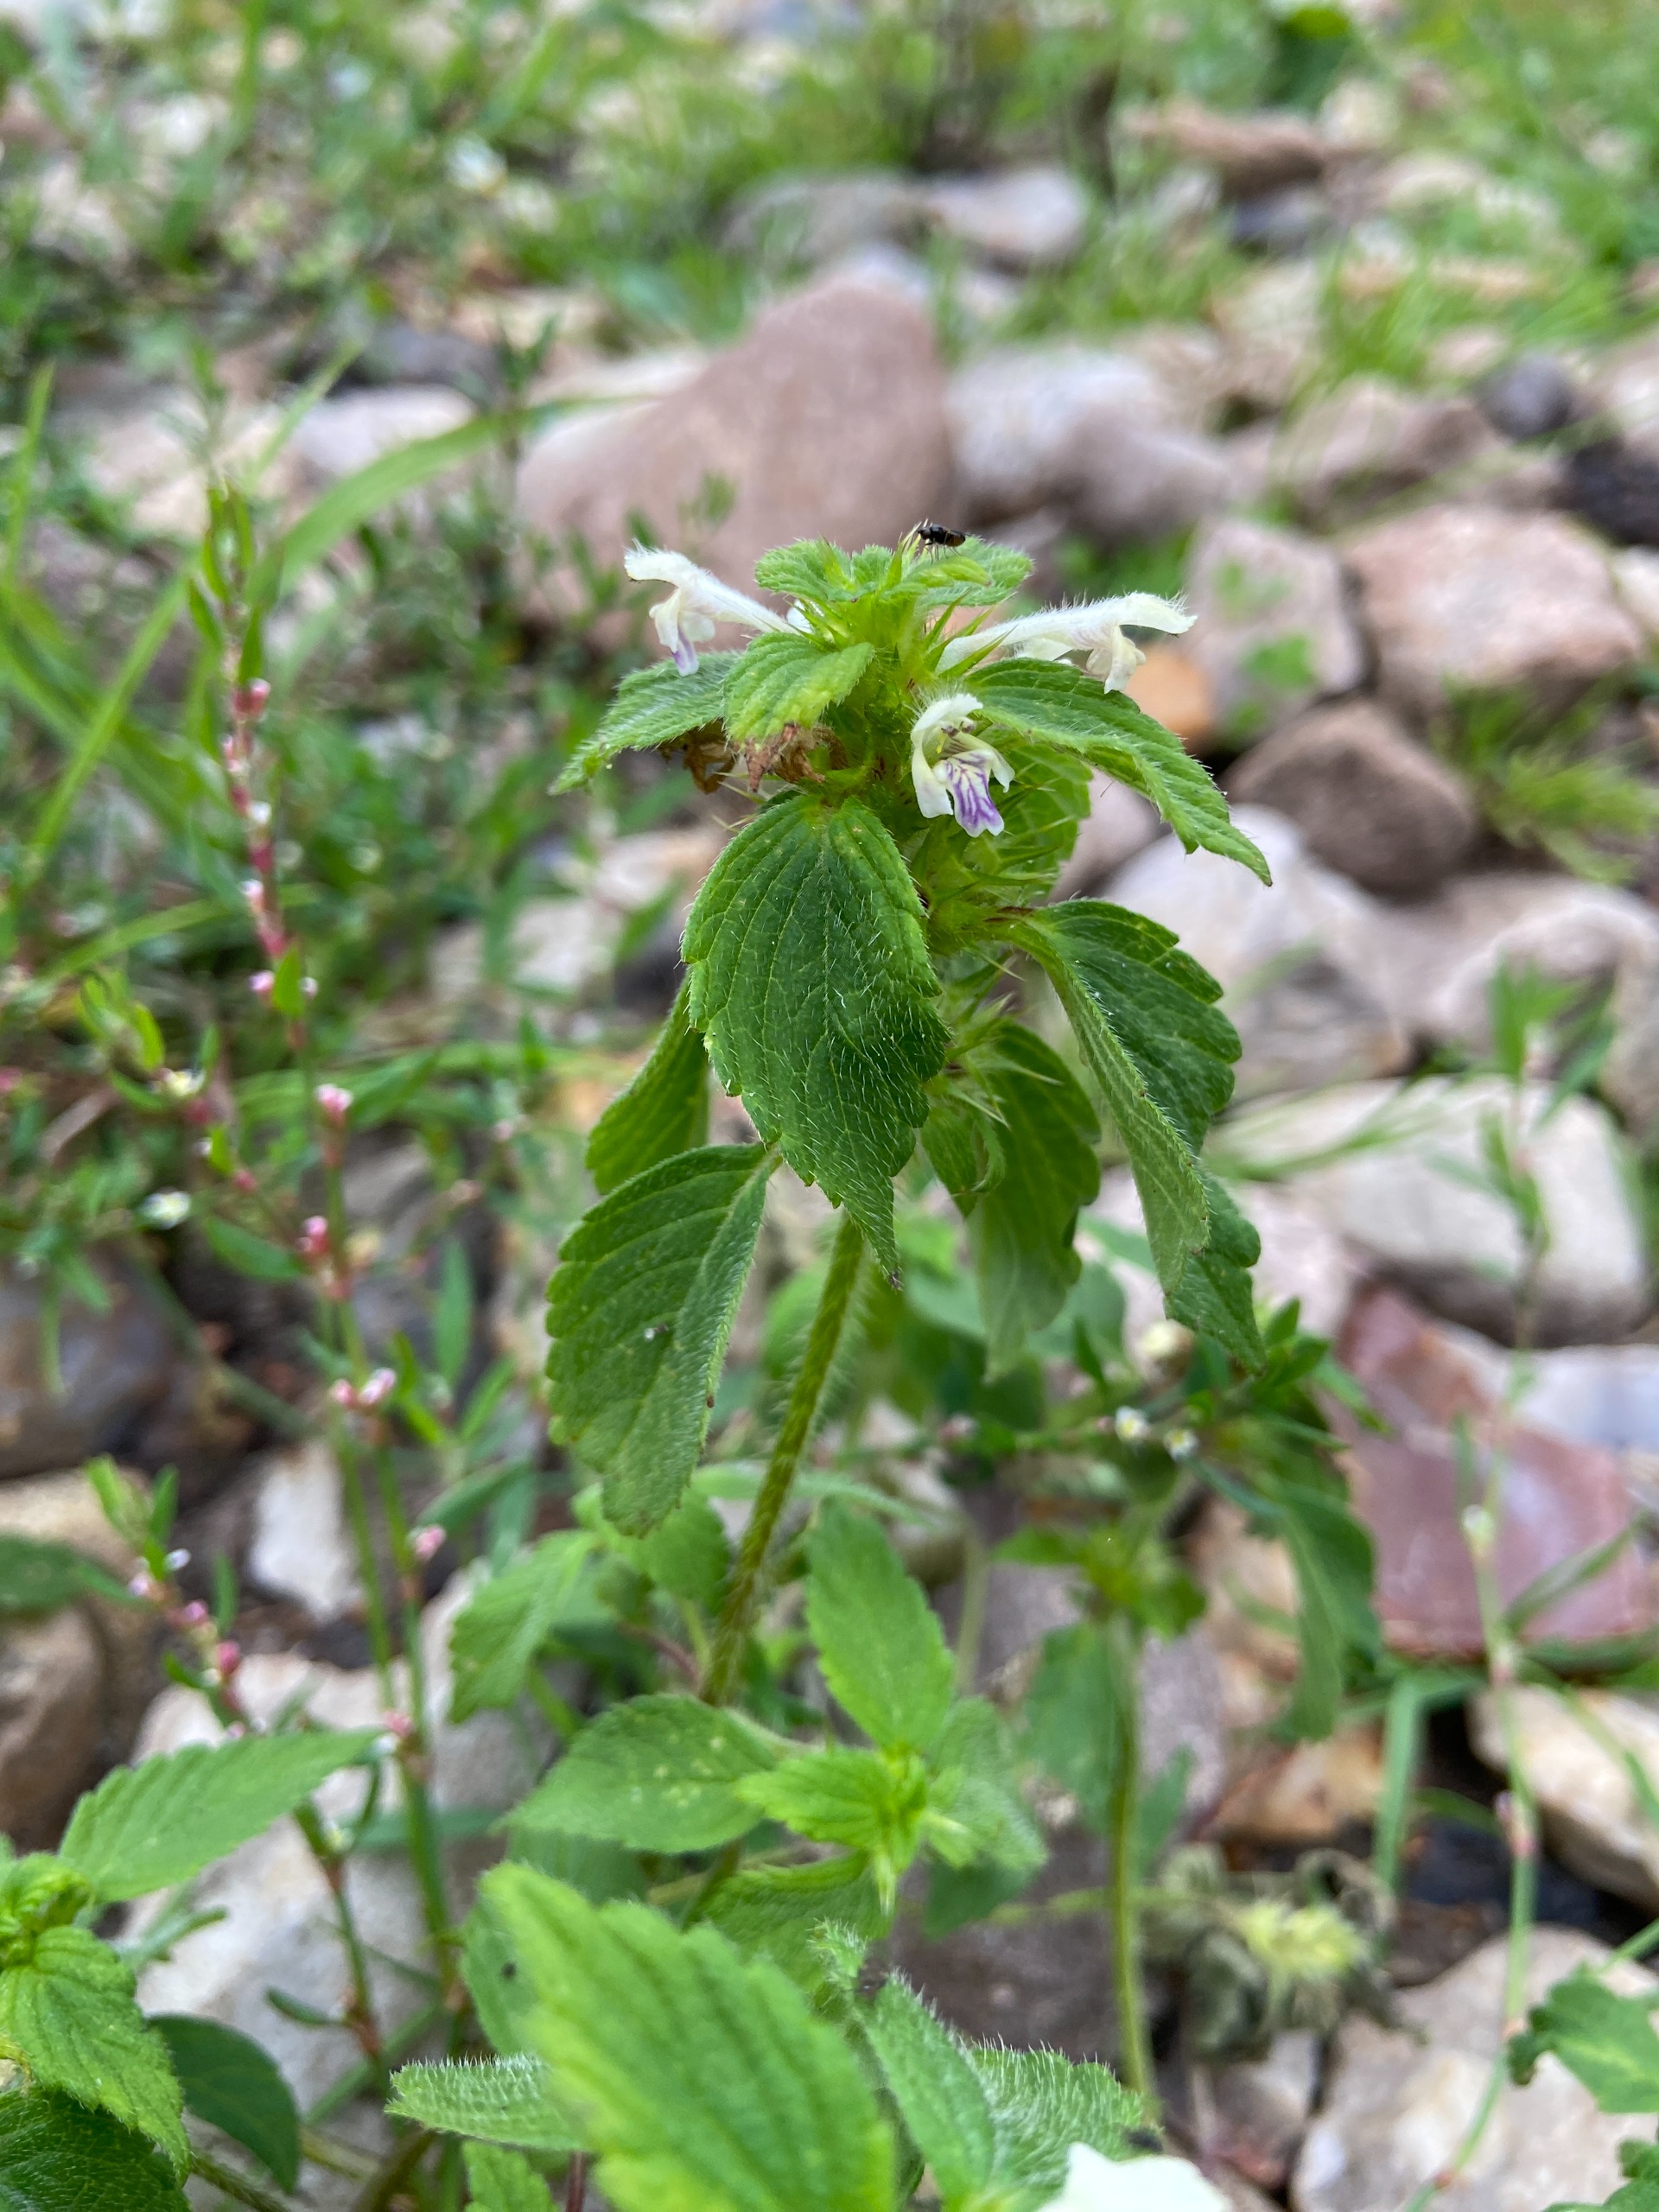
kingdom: Plantae
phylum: Tracheophyta
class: Magnoliopsida
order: Lamiales
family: Lamiaceae
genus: Galeopsis
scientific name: Galeopsis bifida
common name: Skov-hanekro
